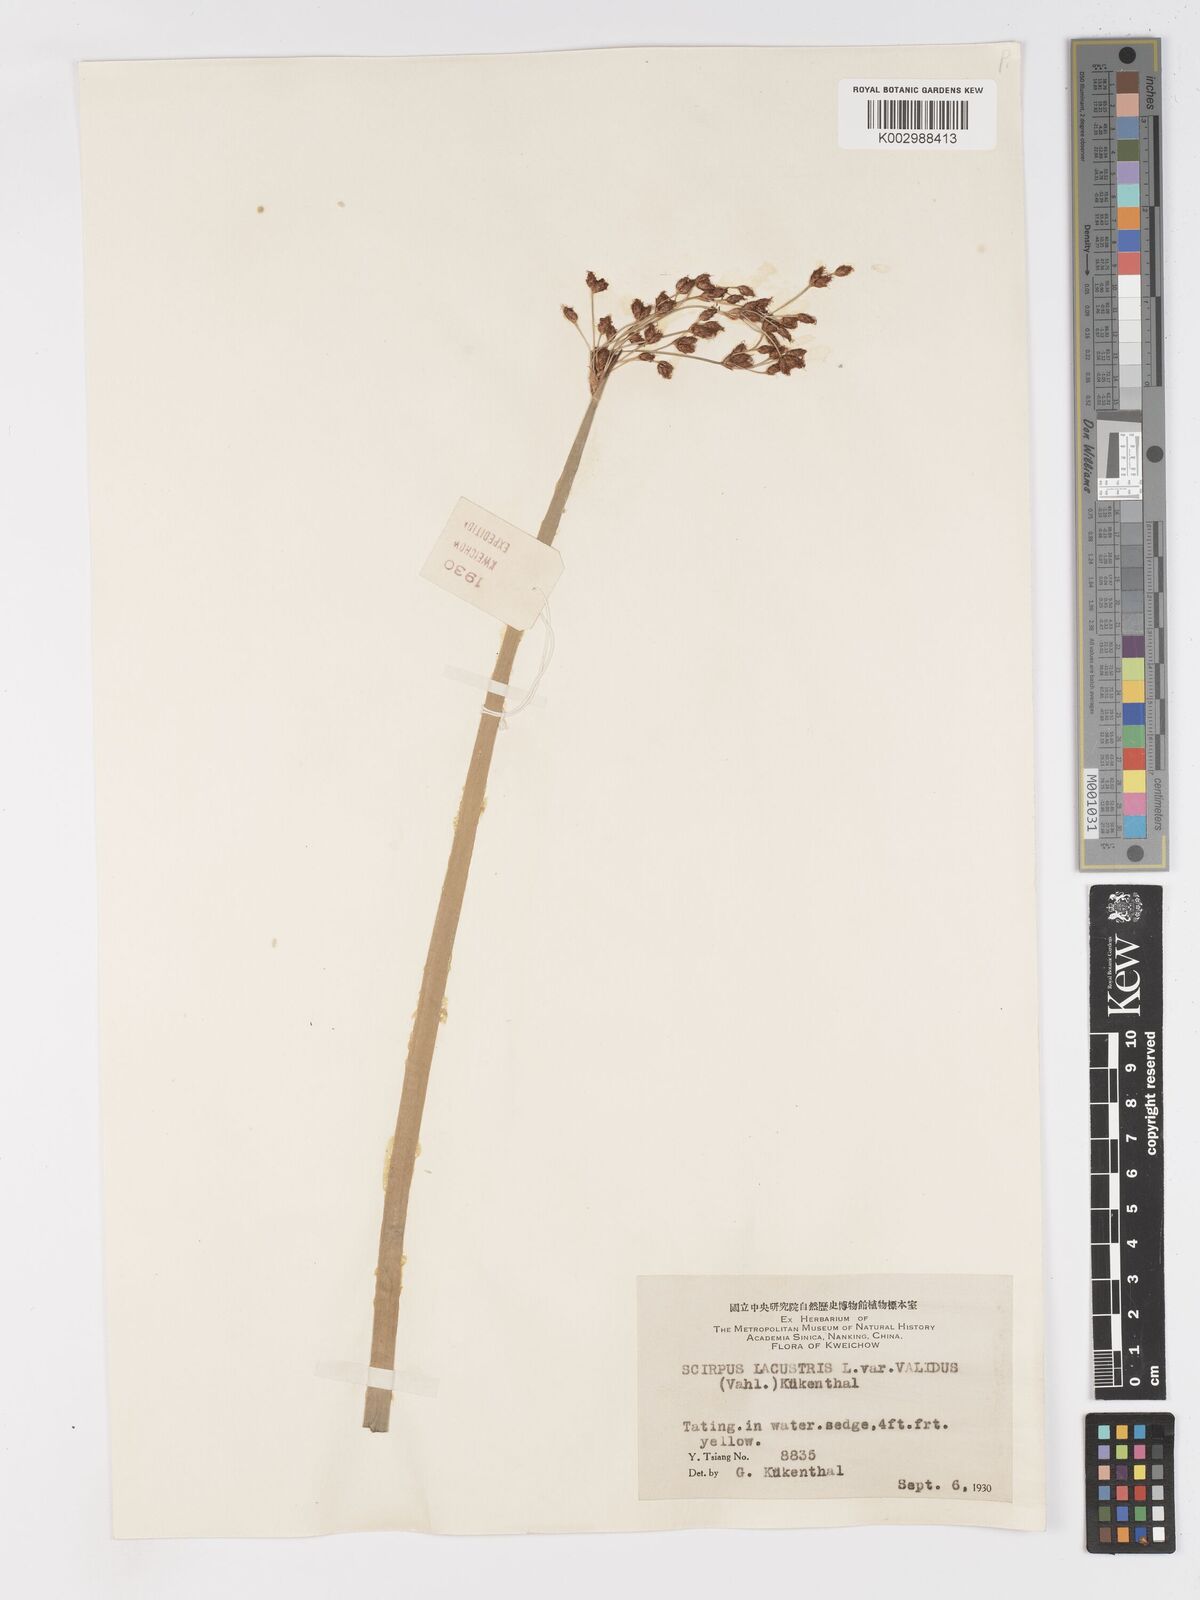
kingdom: Plantae
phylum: Tracheophyta
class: Liliopsida
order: Poales
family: Cyperaceae
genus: Schoenoplectus
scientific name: Schoenoplectus lacustris
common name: Common club-rush
